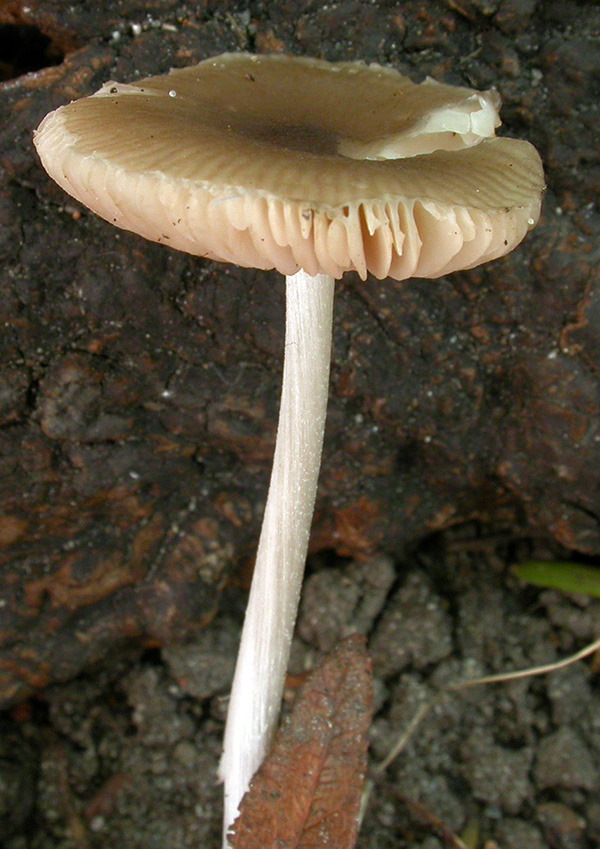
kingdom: Fungi
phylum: Basidiomycota
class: Agaricomycetes
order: Agaricales
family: Pluteaceae
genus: Pluteus
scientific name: Pluteus
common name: gråstokket skærmhat
